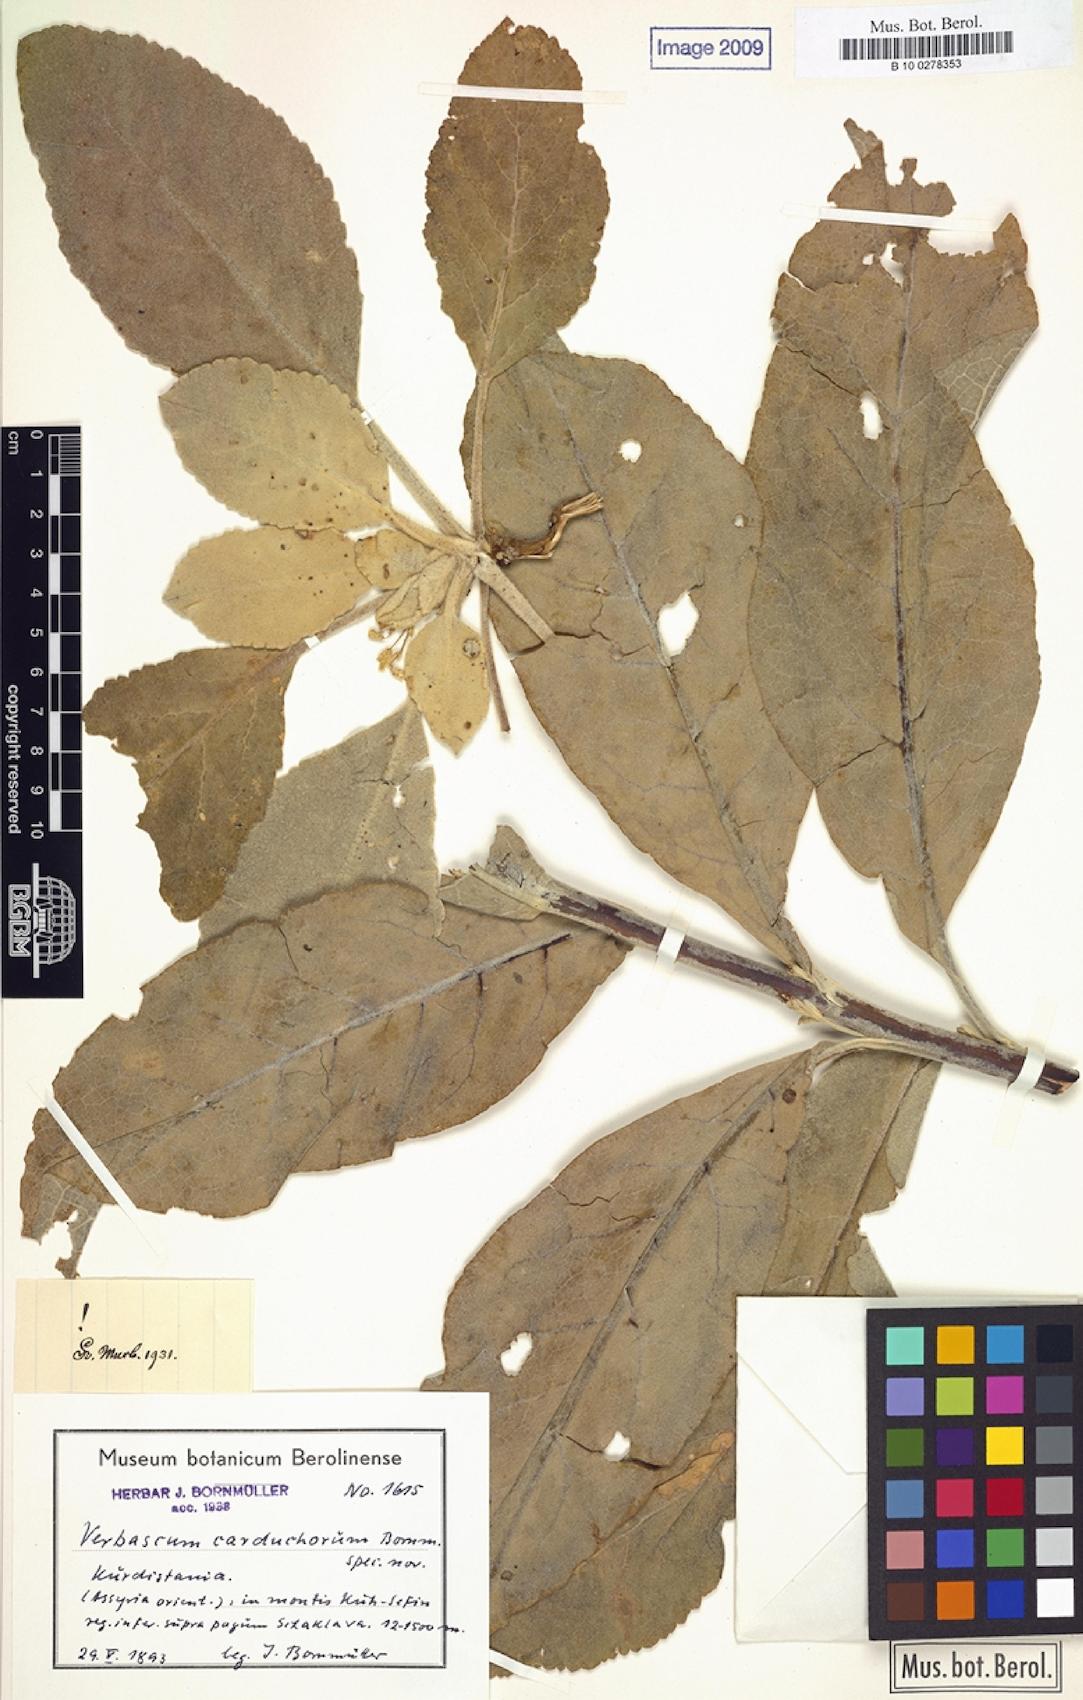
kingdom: Plantae
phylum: Tracheophyta
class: Magnoliopsida
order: Lamiales
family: Scrophulariaceae
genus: Verbascum
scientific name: Verbascum carduchorum
